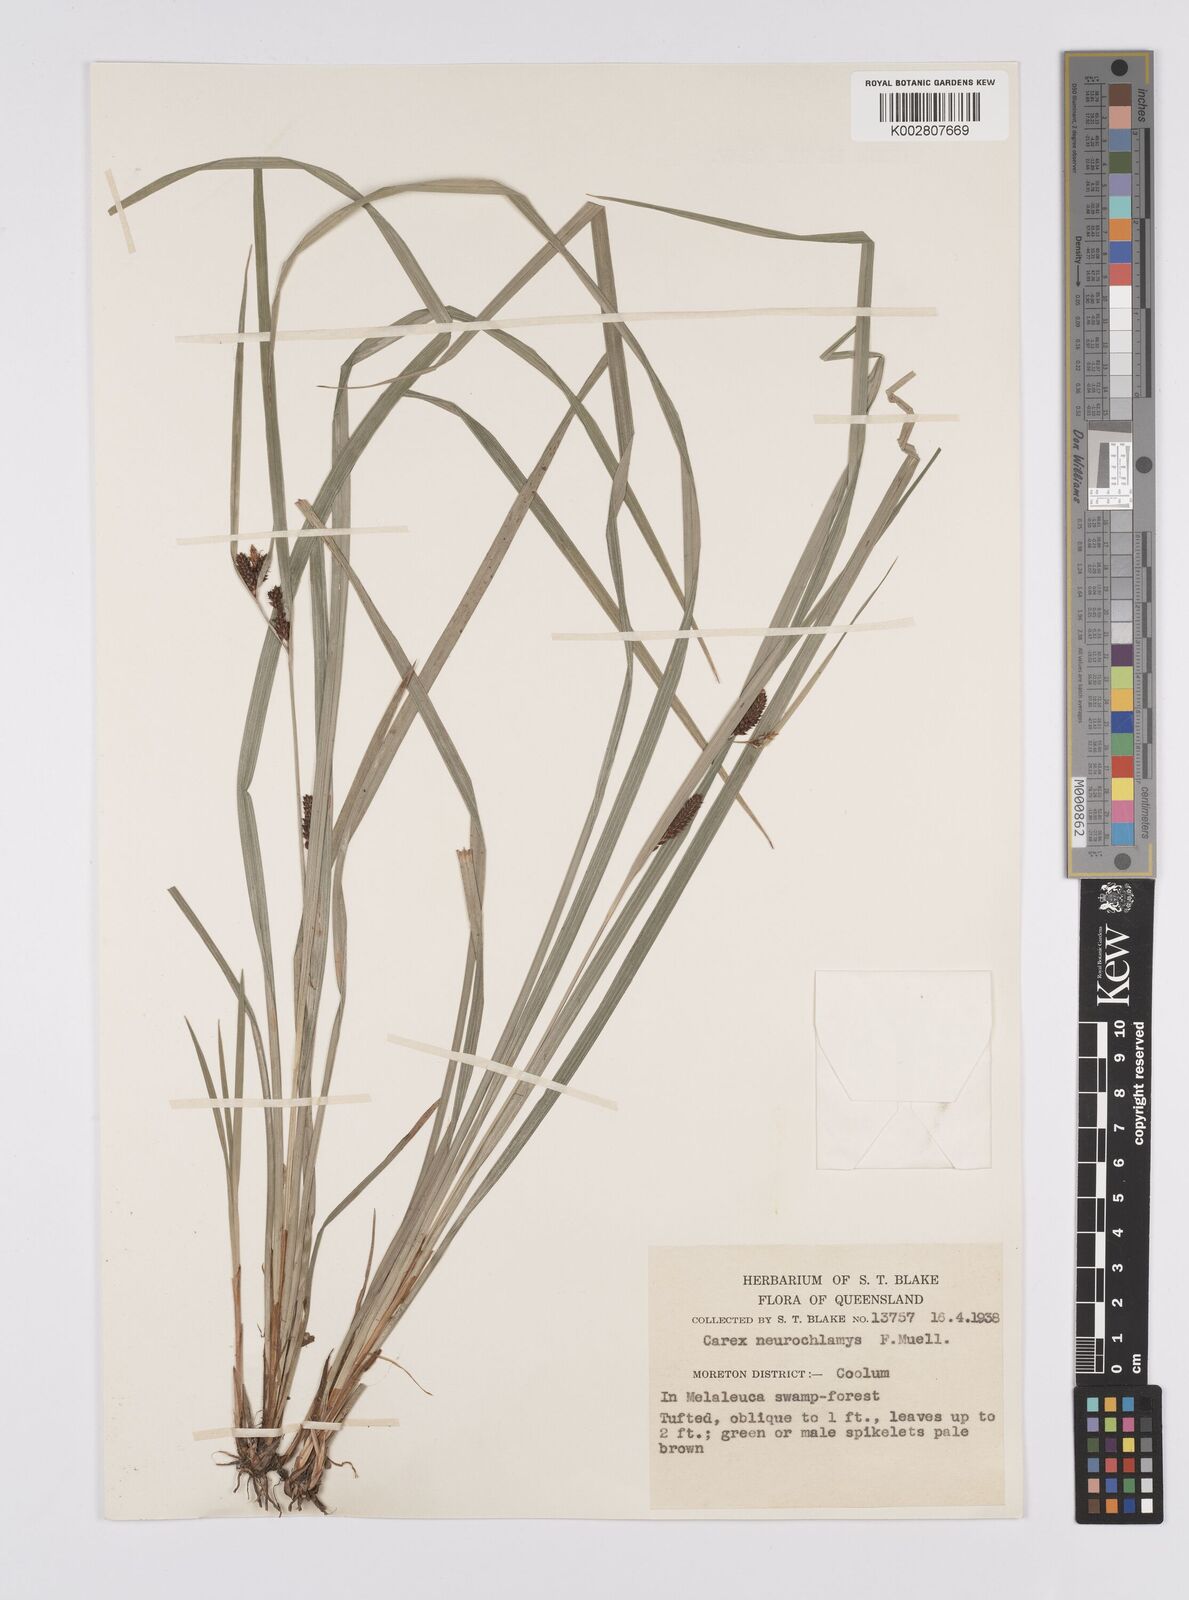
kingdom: Plantae
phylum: Tracheophyta
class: Liliopsida
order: Poales
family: Cyperaceae
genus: Carex
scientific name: Carex maculata
